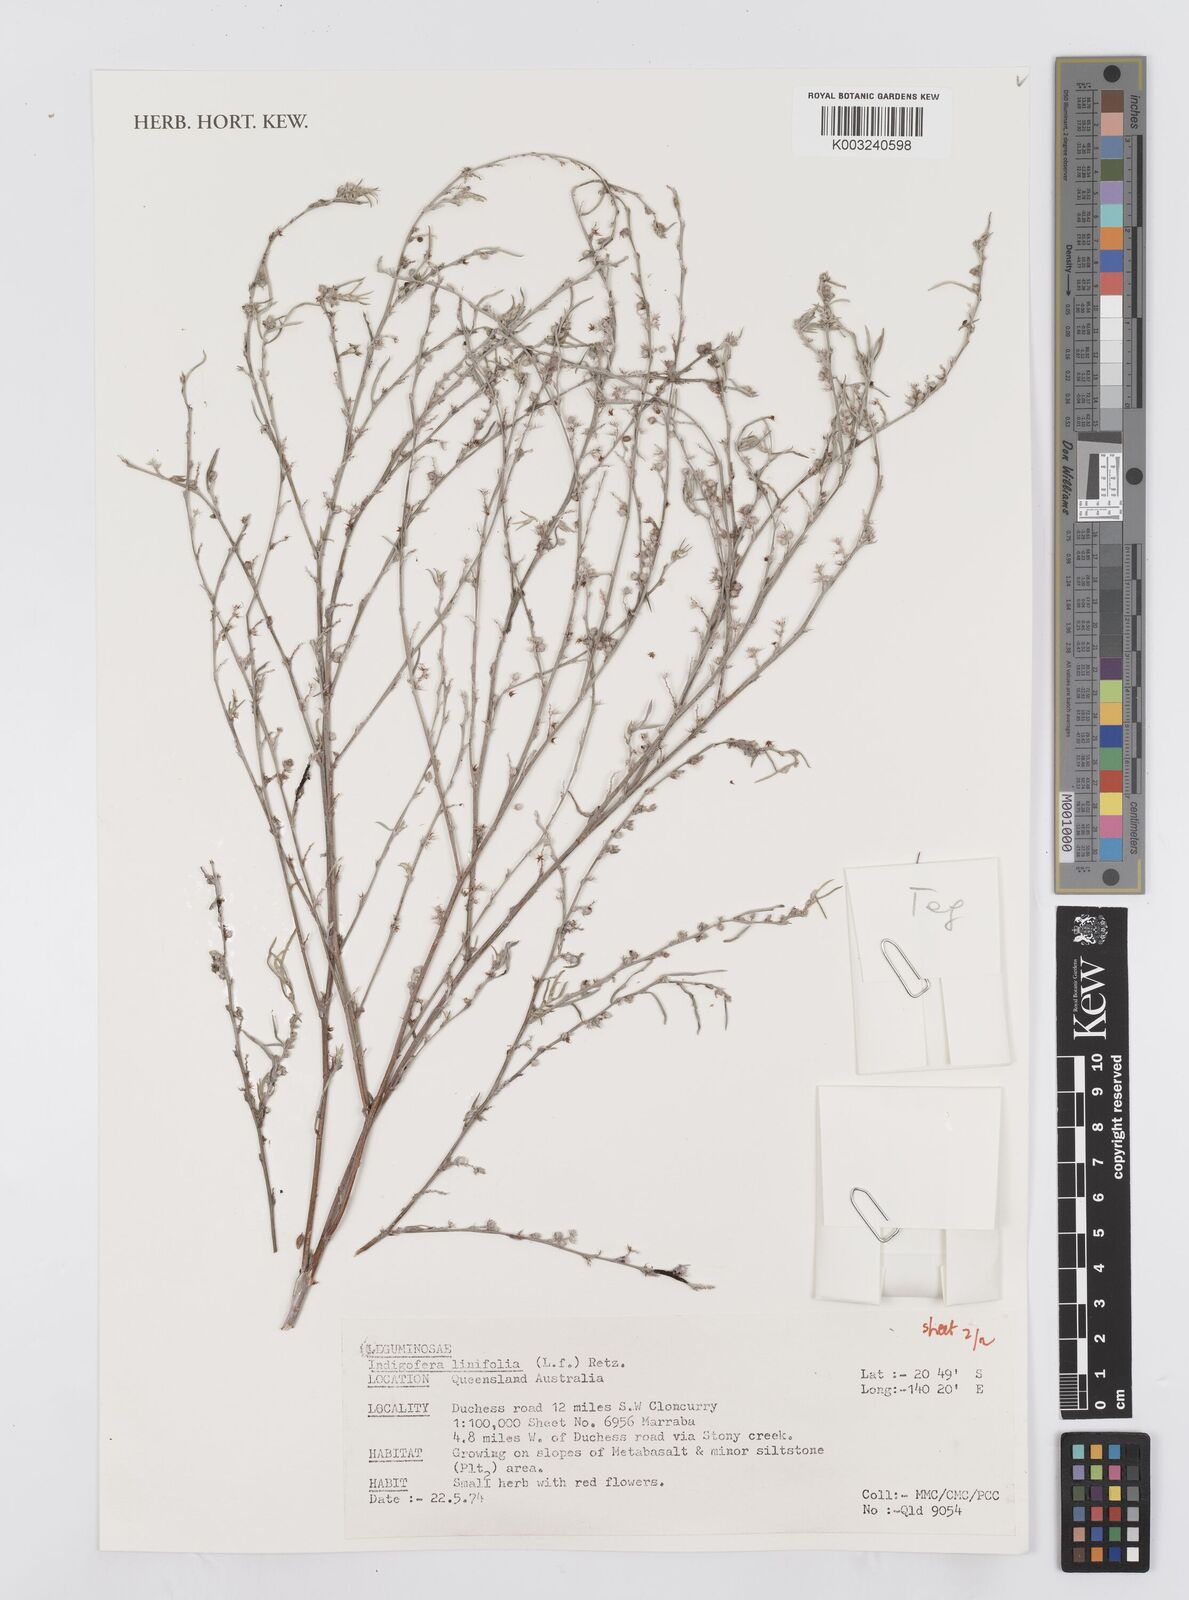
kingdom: Plantae
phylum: Tracheophyta
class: Magnoliopsida
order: Fabales
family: Fabaceae
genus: Indigofera
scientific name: Indigofera linifolia
